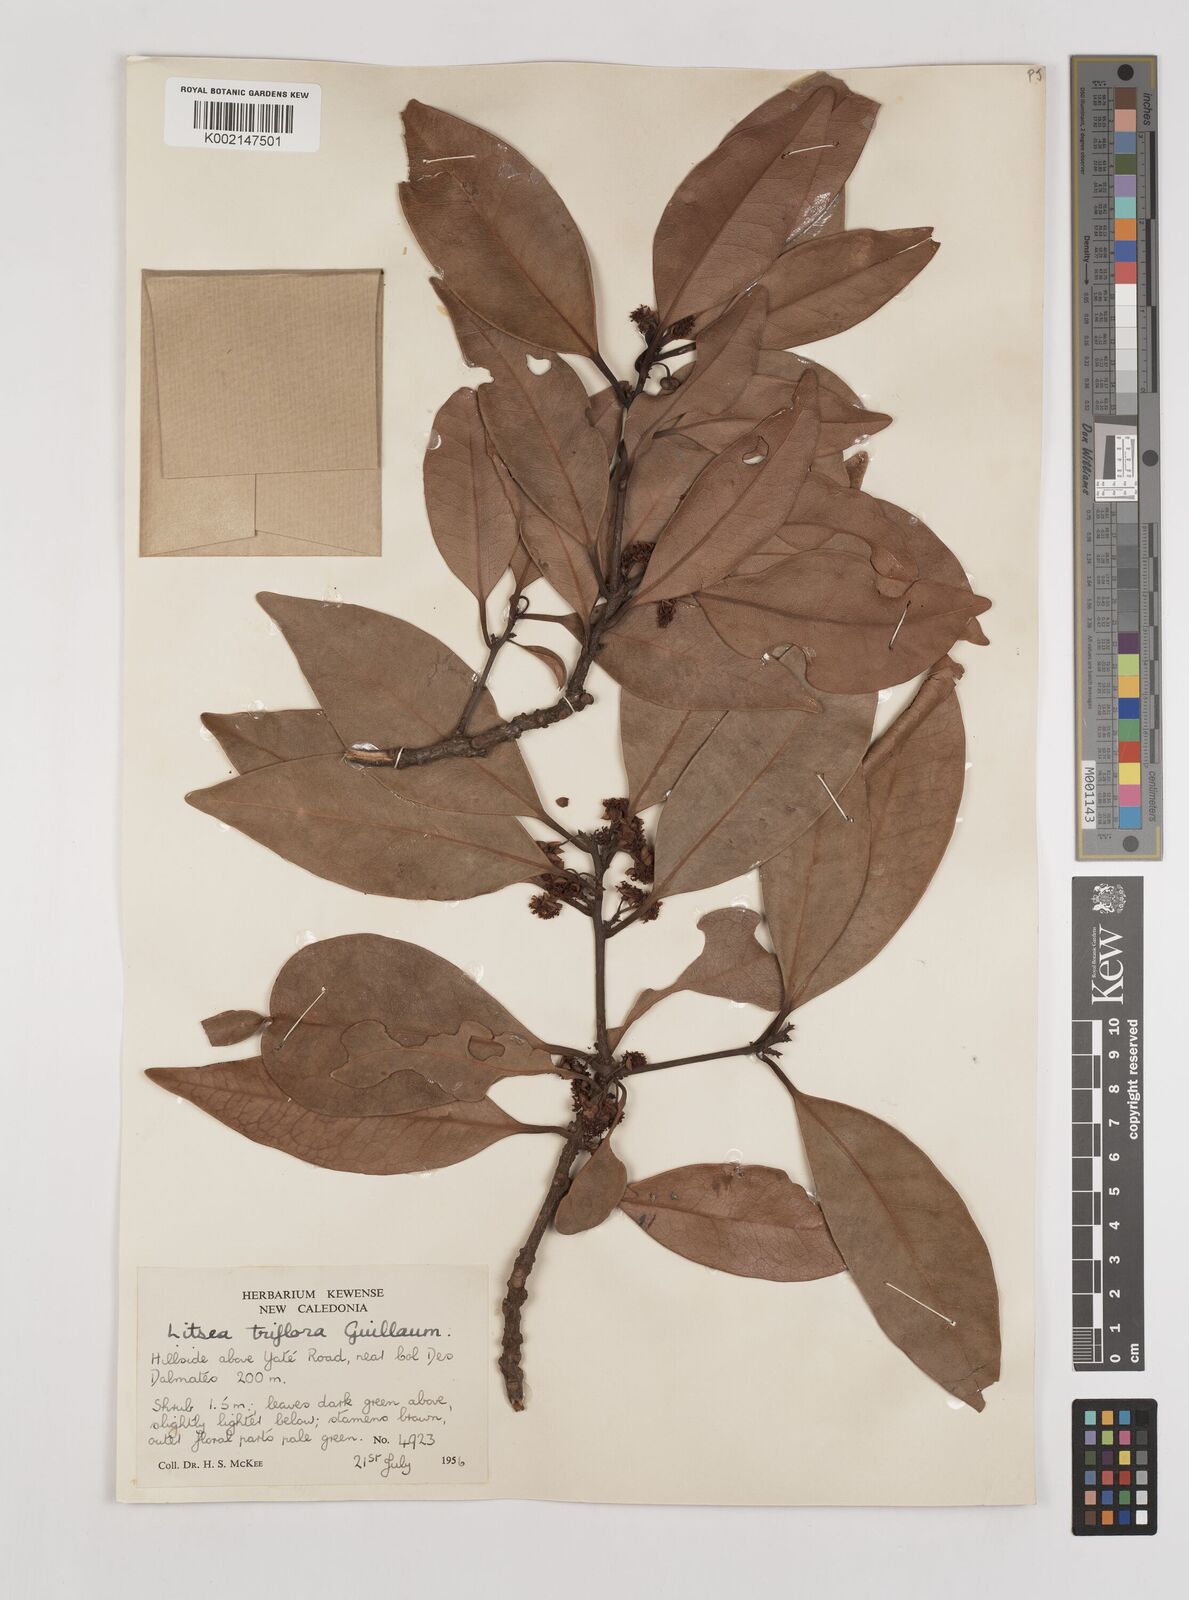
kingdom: Plantae
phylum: Tracheophyta
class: Magnoliopsida
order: Laurales
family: Lauraceae
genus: Litsea
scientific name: Litsea triflora
